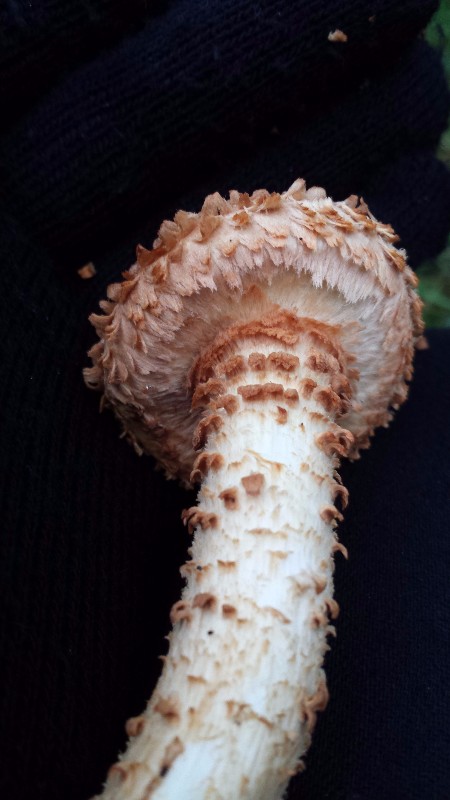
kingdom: Fungi
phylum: Basidiomycota
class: Agaricomycetes
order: Agaricales
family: Strophariaceae
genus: Pholiota
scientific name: Pholiota squarrosa
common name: krumskællet skælhat
